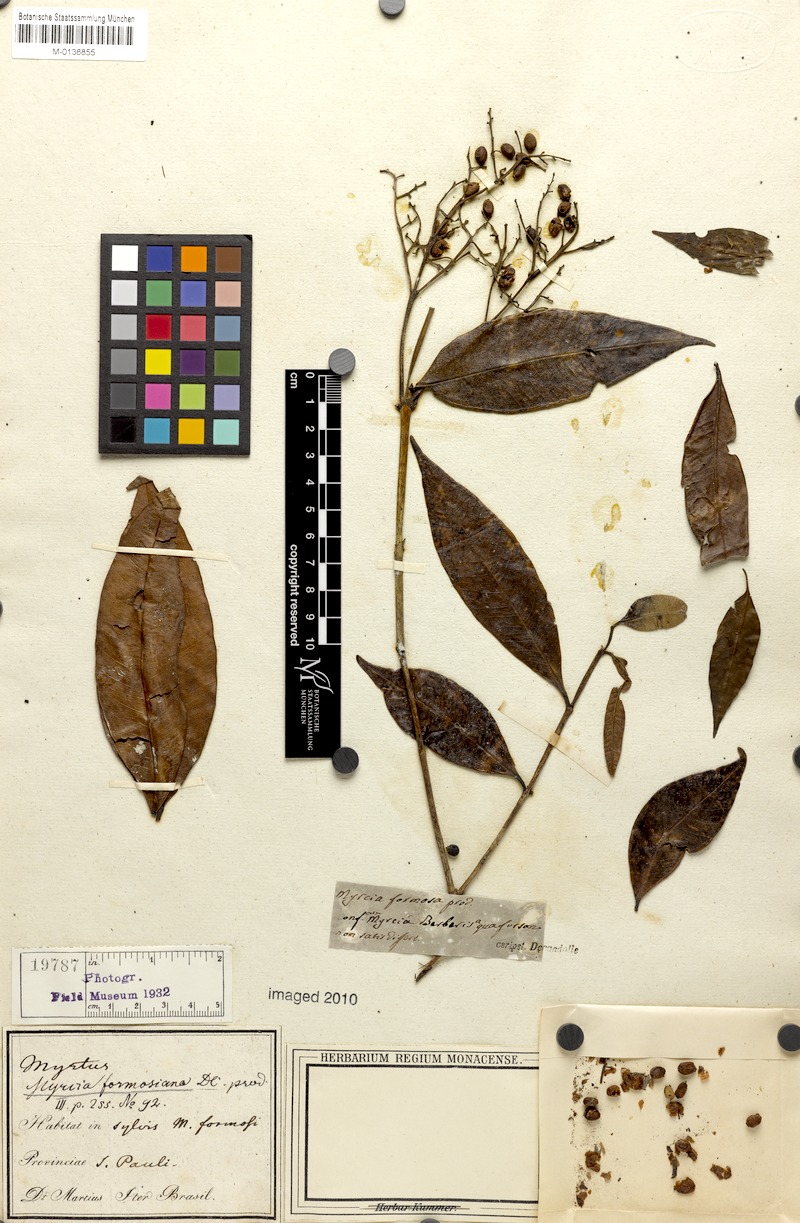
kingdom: Plantae
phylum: Tracheophyta
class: Magnoliopsida
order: Myrtales
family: Myrtaceae
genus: Myrcia
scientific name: Myrcia splendens
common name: Surinam cherry
